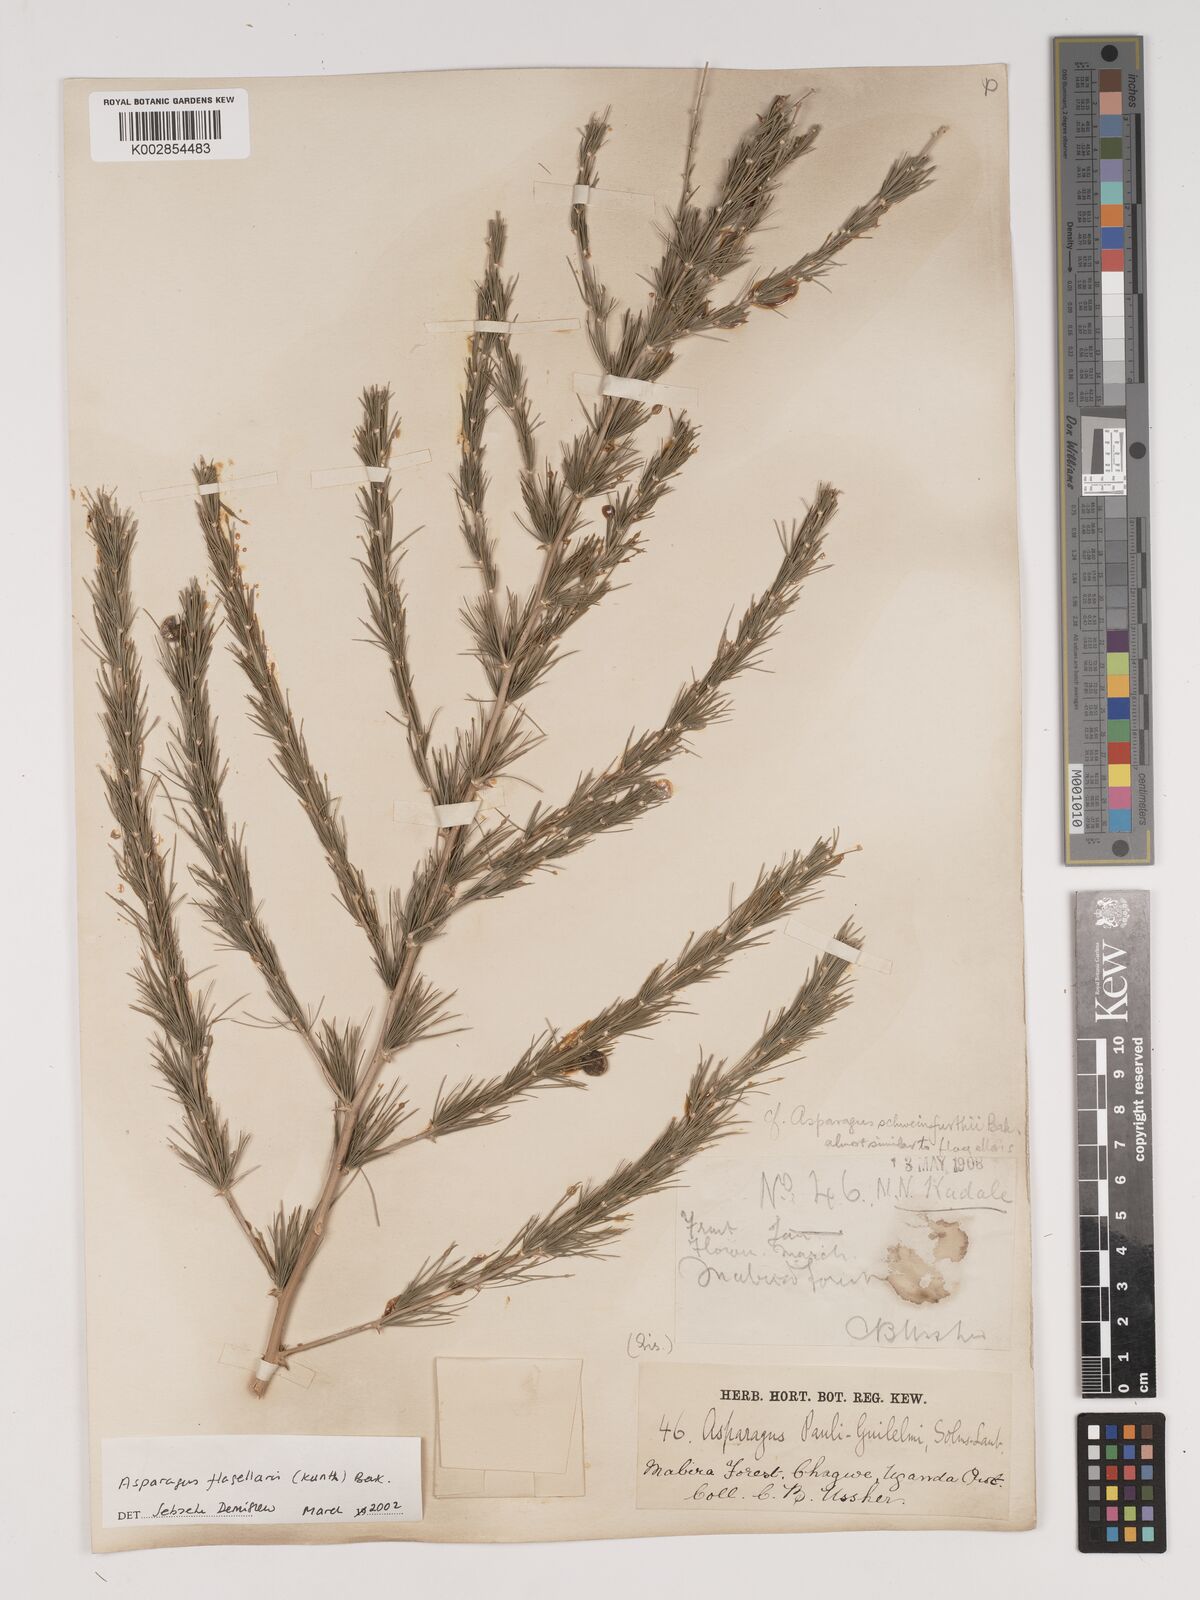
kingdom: Plantae
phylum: Tracheophyta
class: Liliopsida
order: Asparagales
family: Asparagaceae
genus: Asparagus
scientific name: Asparagus flagellaris
